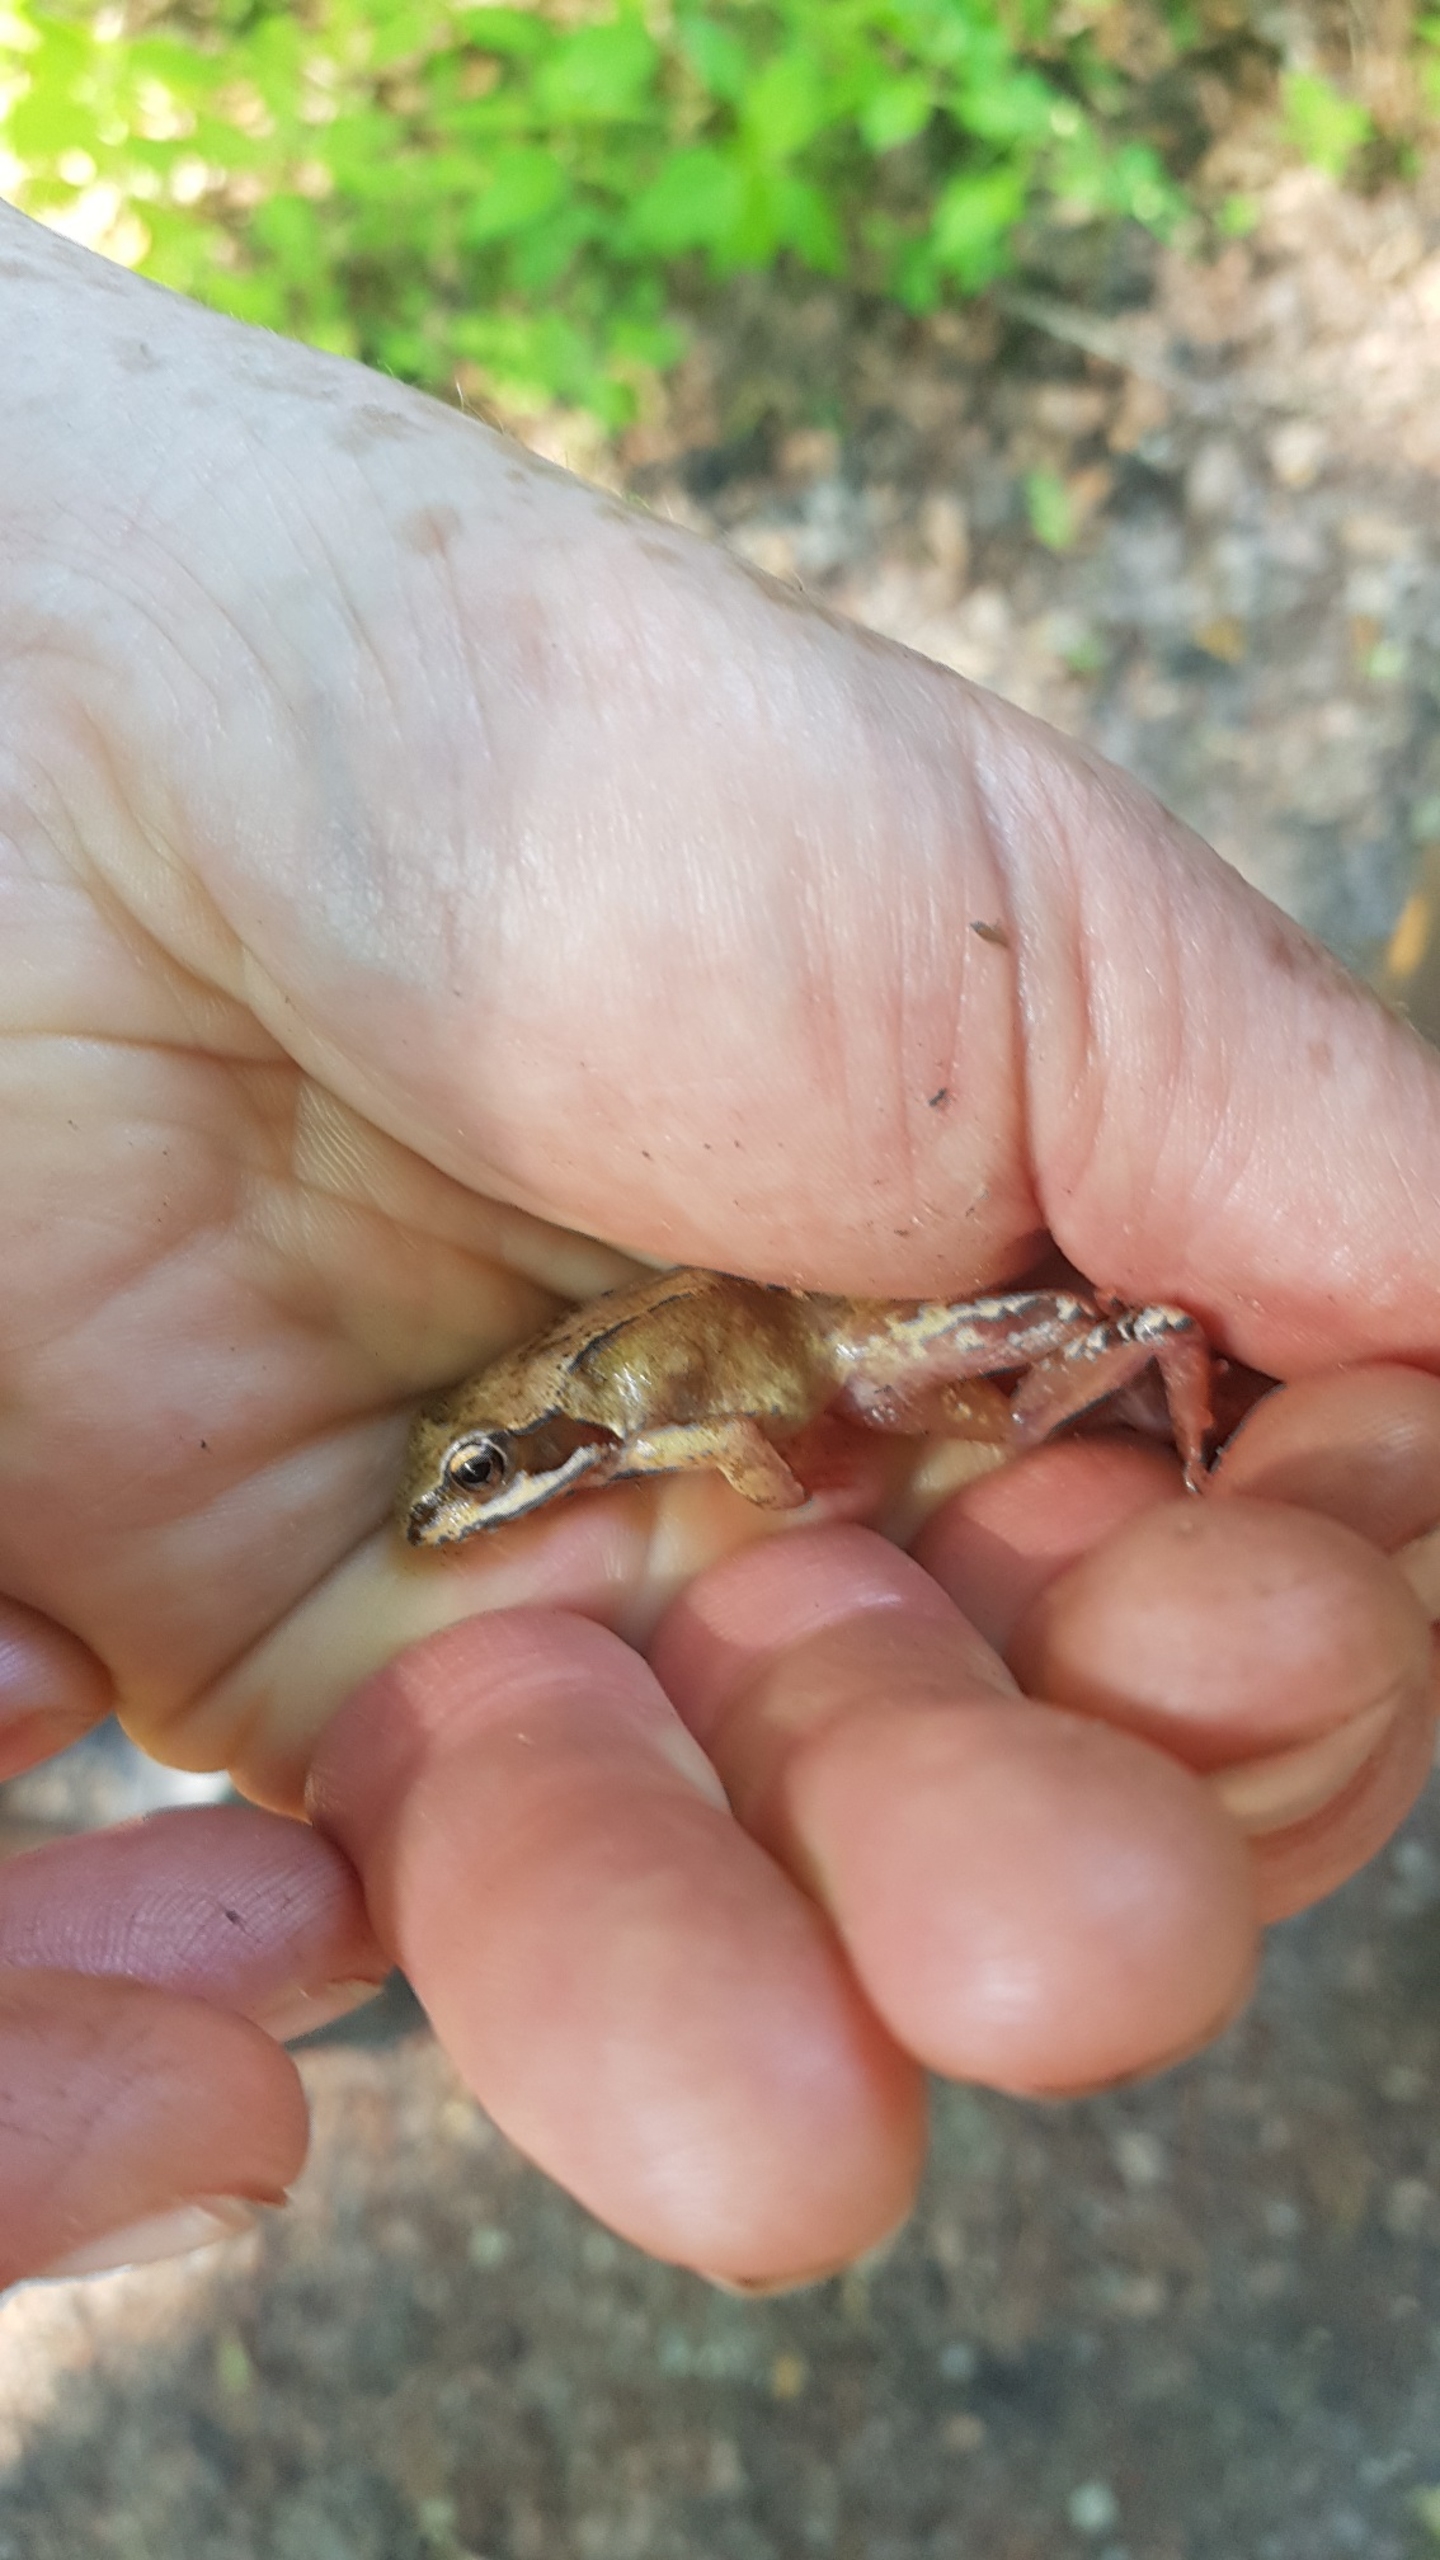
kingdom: Animalia
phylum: Chordata
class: Amphibia
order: Anura
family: Ranidae
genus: Rana
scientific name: Rana temporaria
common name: Butsnudet frø
